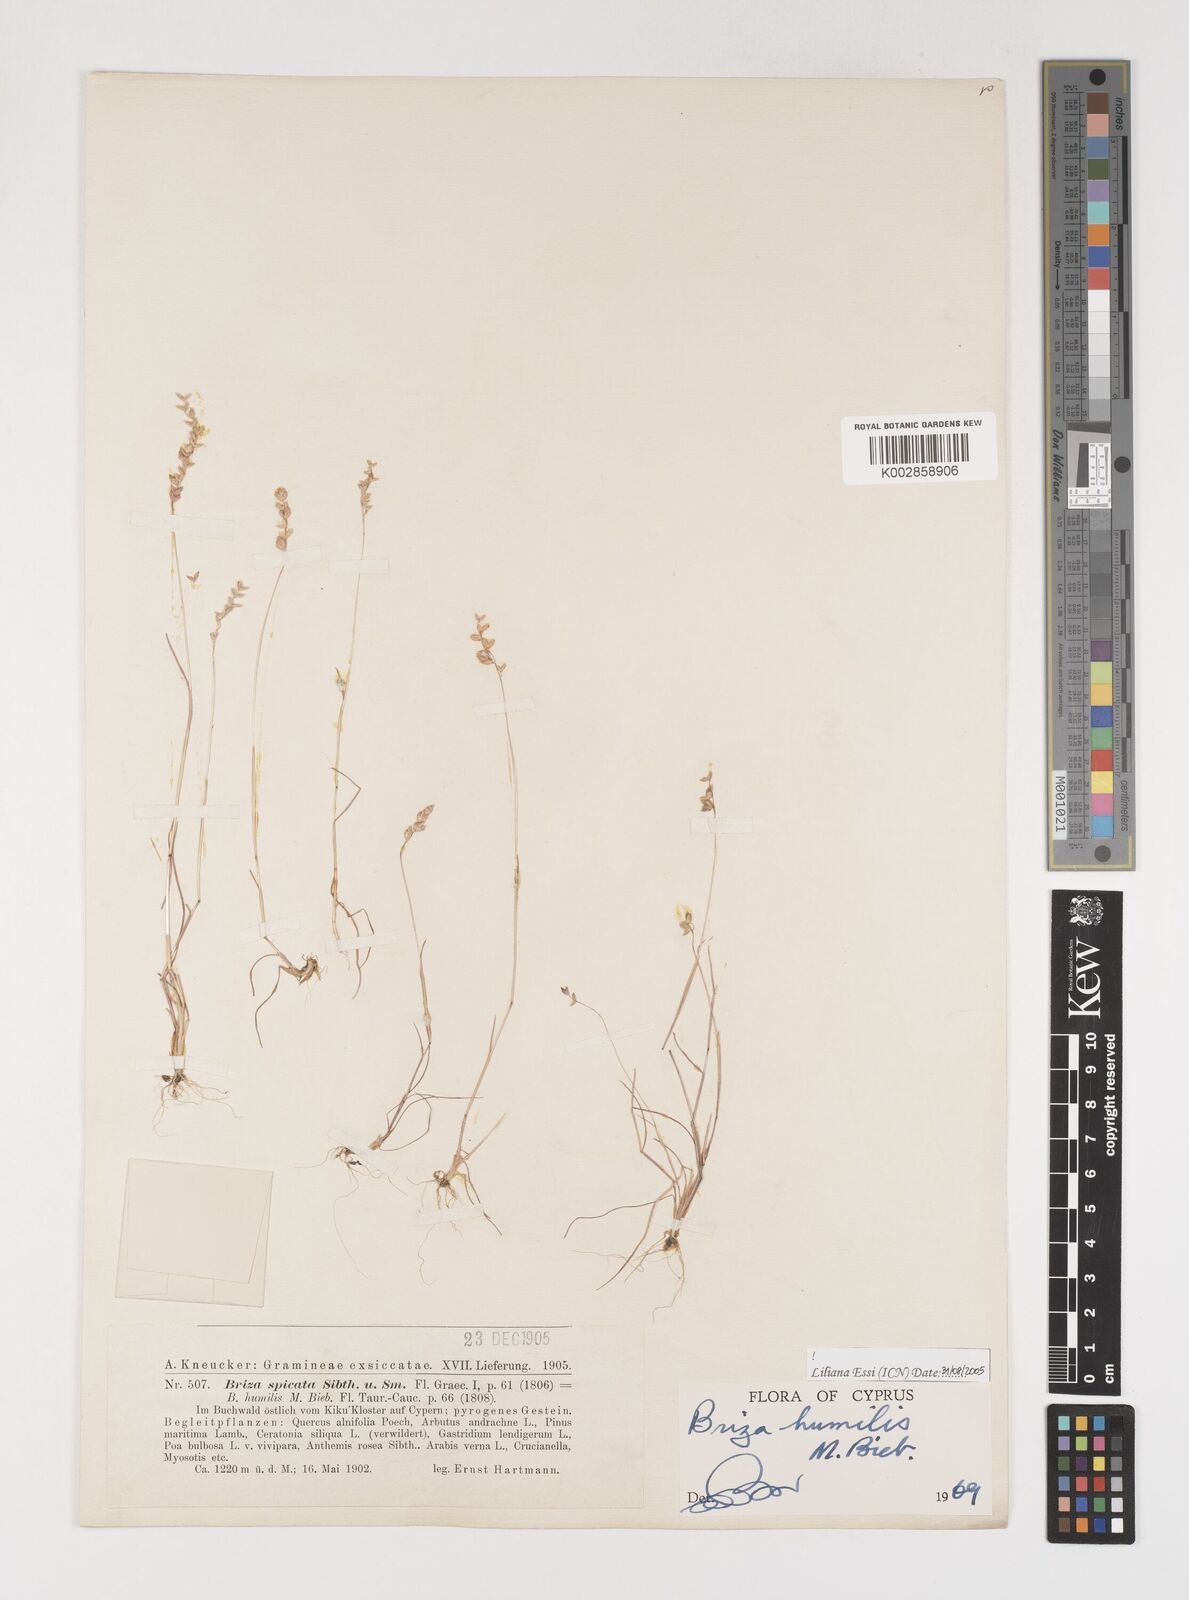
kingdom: Plantae
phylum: Tracheophyta
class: Liliopsida
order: Poales
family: Poaceae
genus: Briza
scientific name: Briza humilis
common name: Spiked quaking grass
